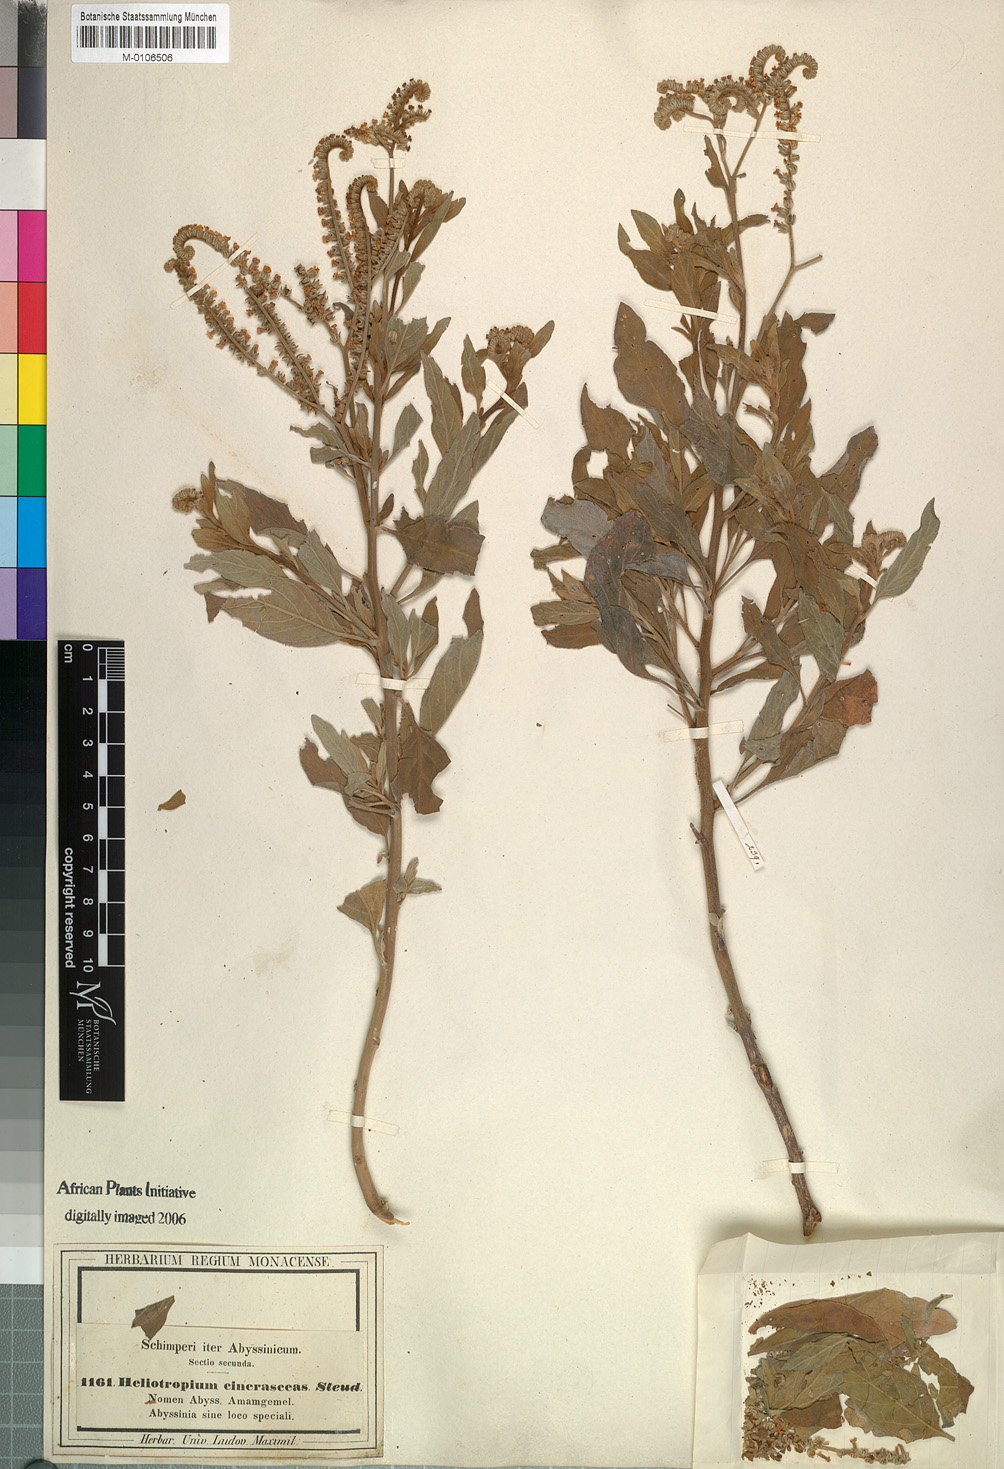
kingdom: Plantae
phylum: Tracheophyta
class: Magnoliopsida
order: Boraginales
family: Heliotropiaceae
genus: Heliotropium
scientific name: Heliotropium aegyptiacum
